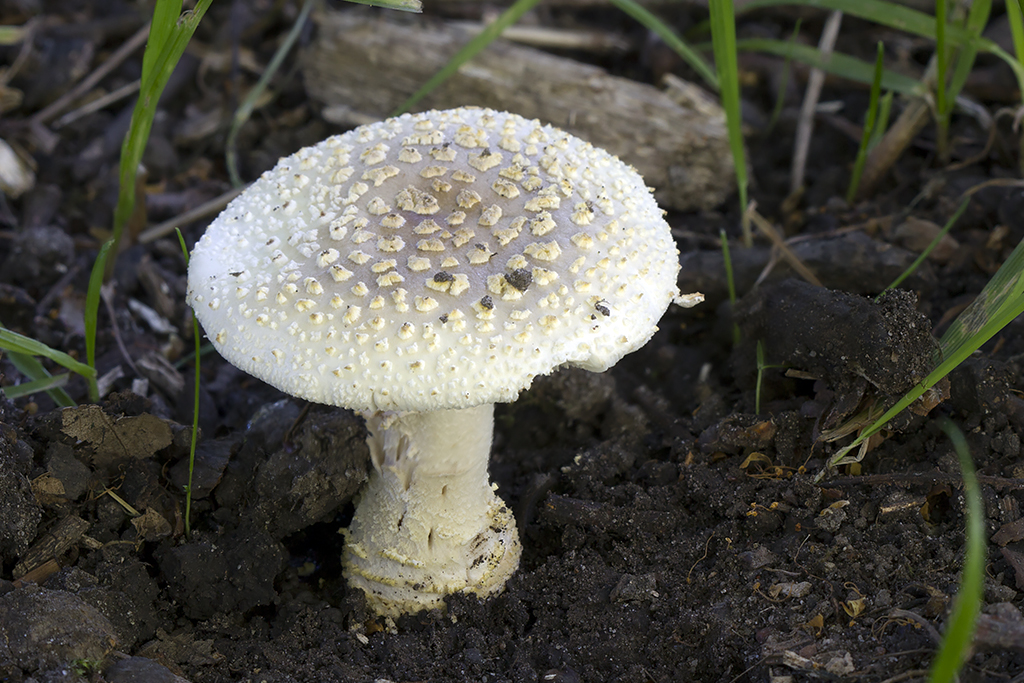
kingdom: Fungi
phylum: Basidiomycota
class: Agaricomycetes
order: Agaricales
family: Amanitaceae
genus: Amanita
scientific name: Amanita franchetii
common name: gulrandet fluesvamp
